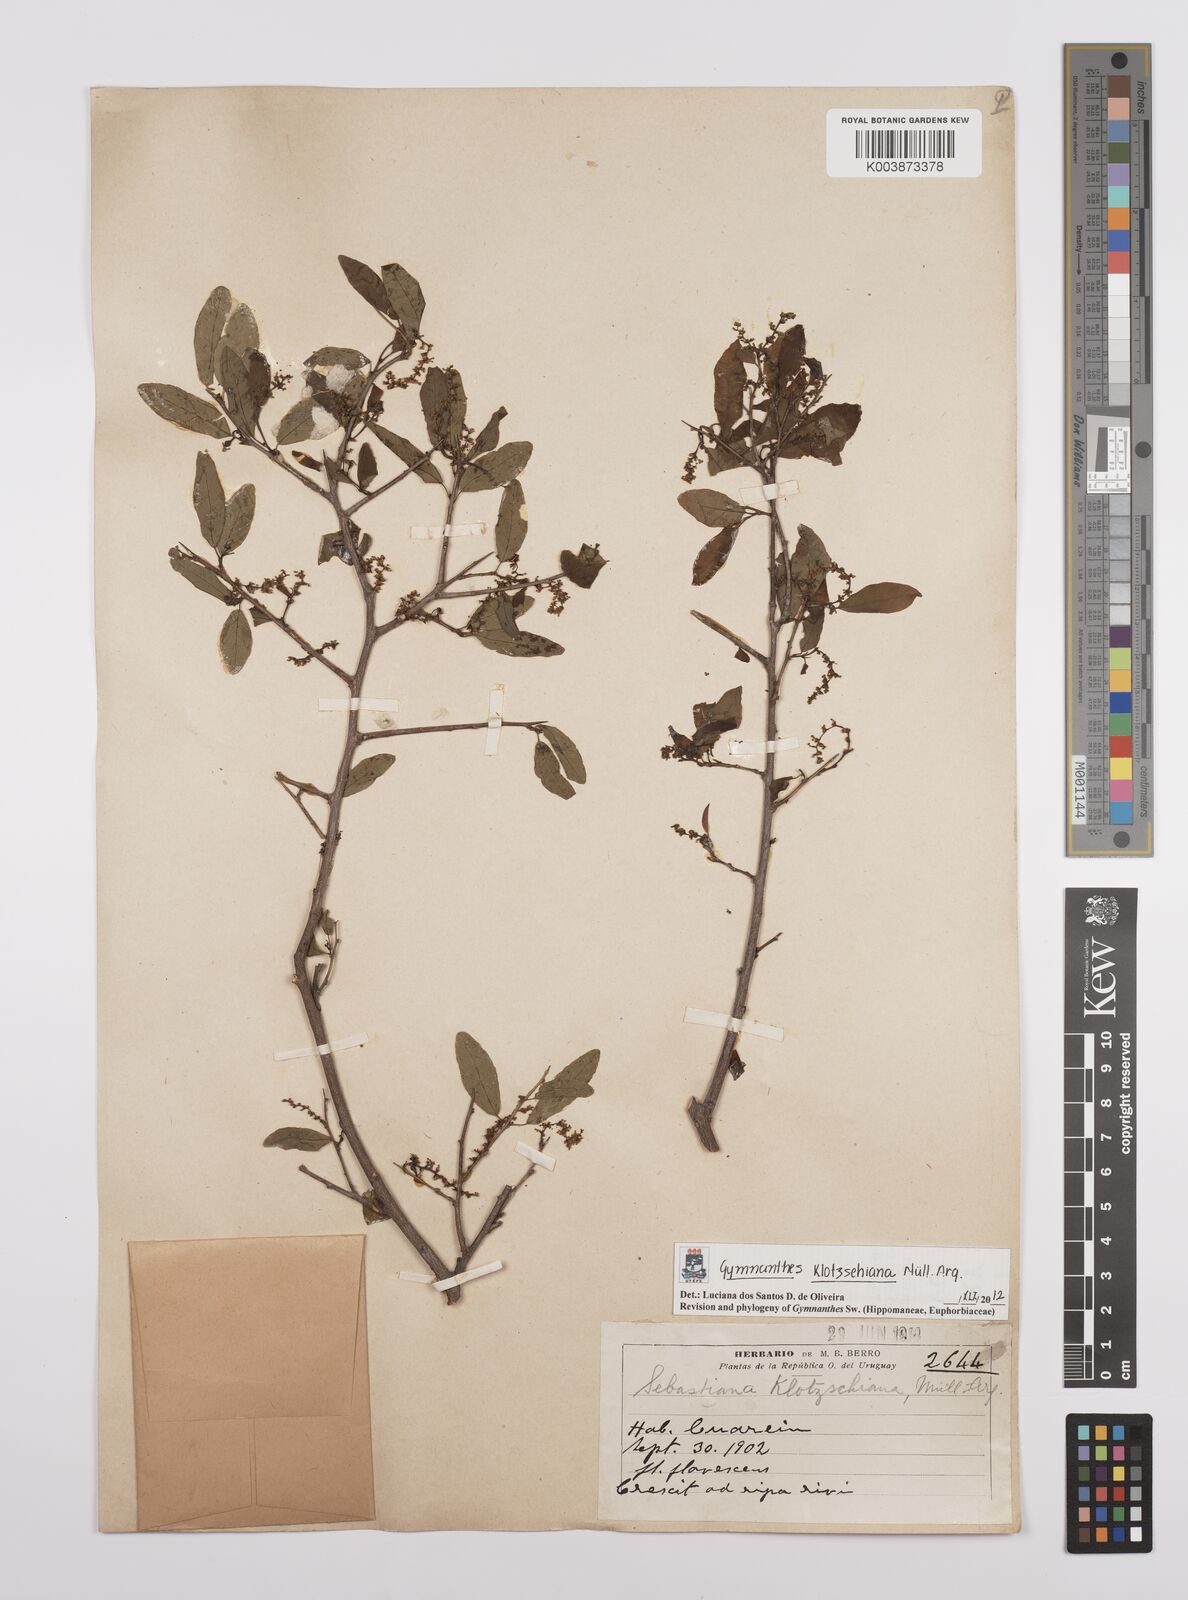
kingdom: Plantae
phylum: Tracheophyta
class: Magnoliopsida
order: Malpighiales
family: Euphorbiaceae
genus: Sebastiania
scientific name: Sebastiania klotzschiana
